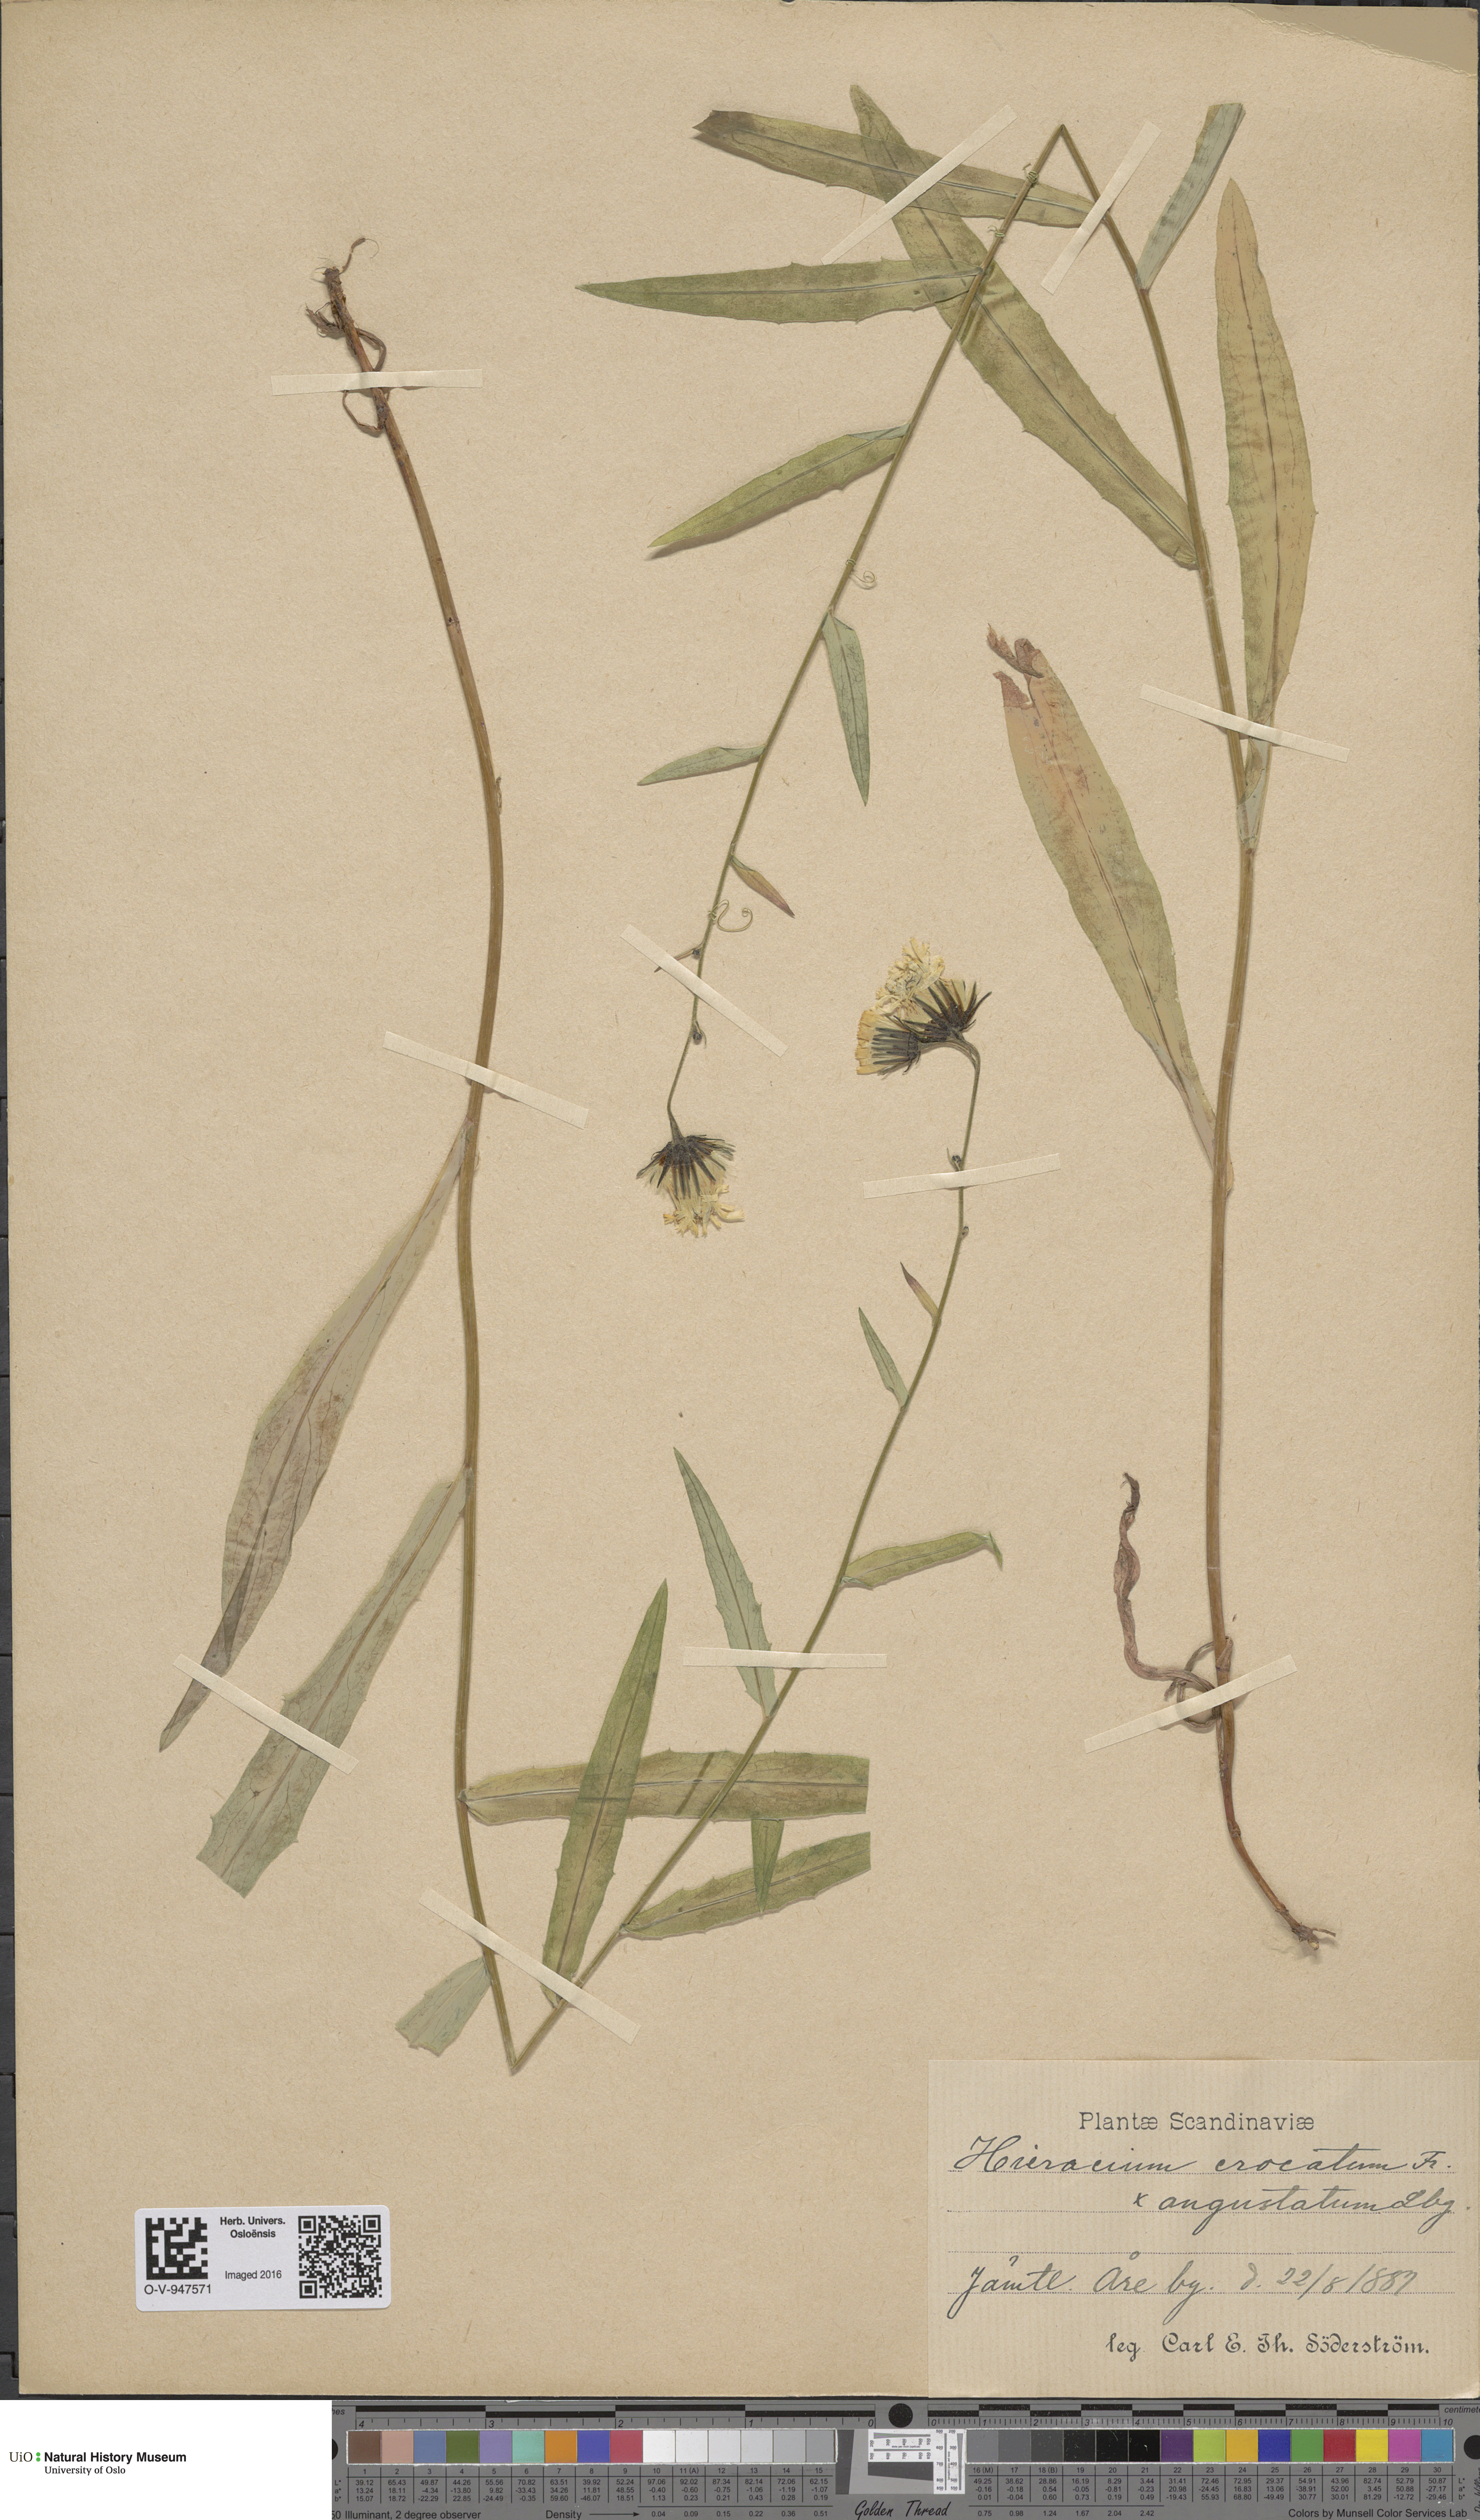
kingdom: Plantae
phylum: Tracheophyta
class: Magnoliopsida
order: Asterales
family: Asteraceae
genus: Hieracium
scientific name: Hieracium angustum
